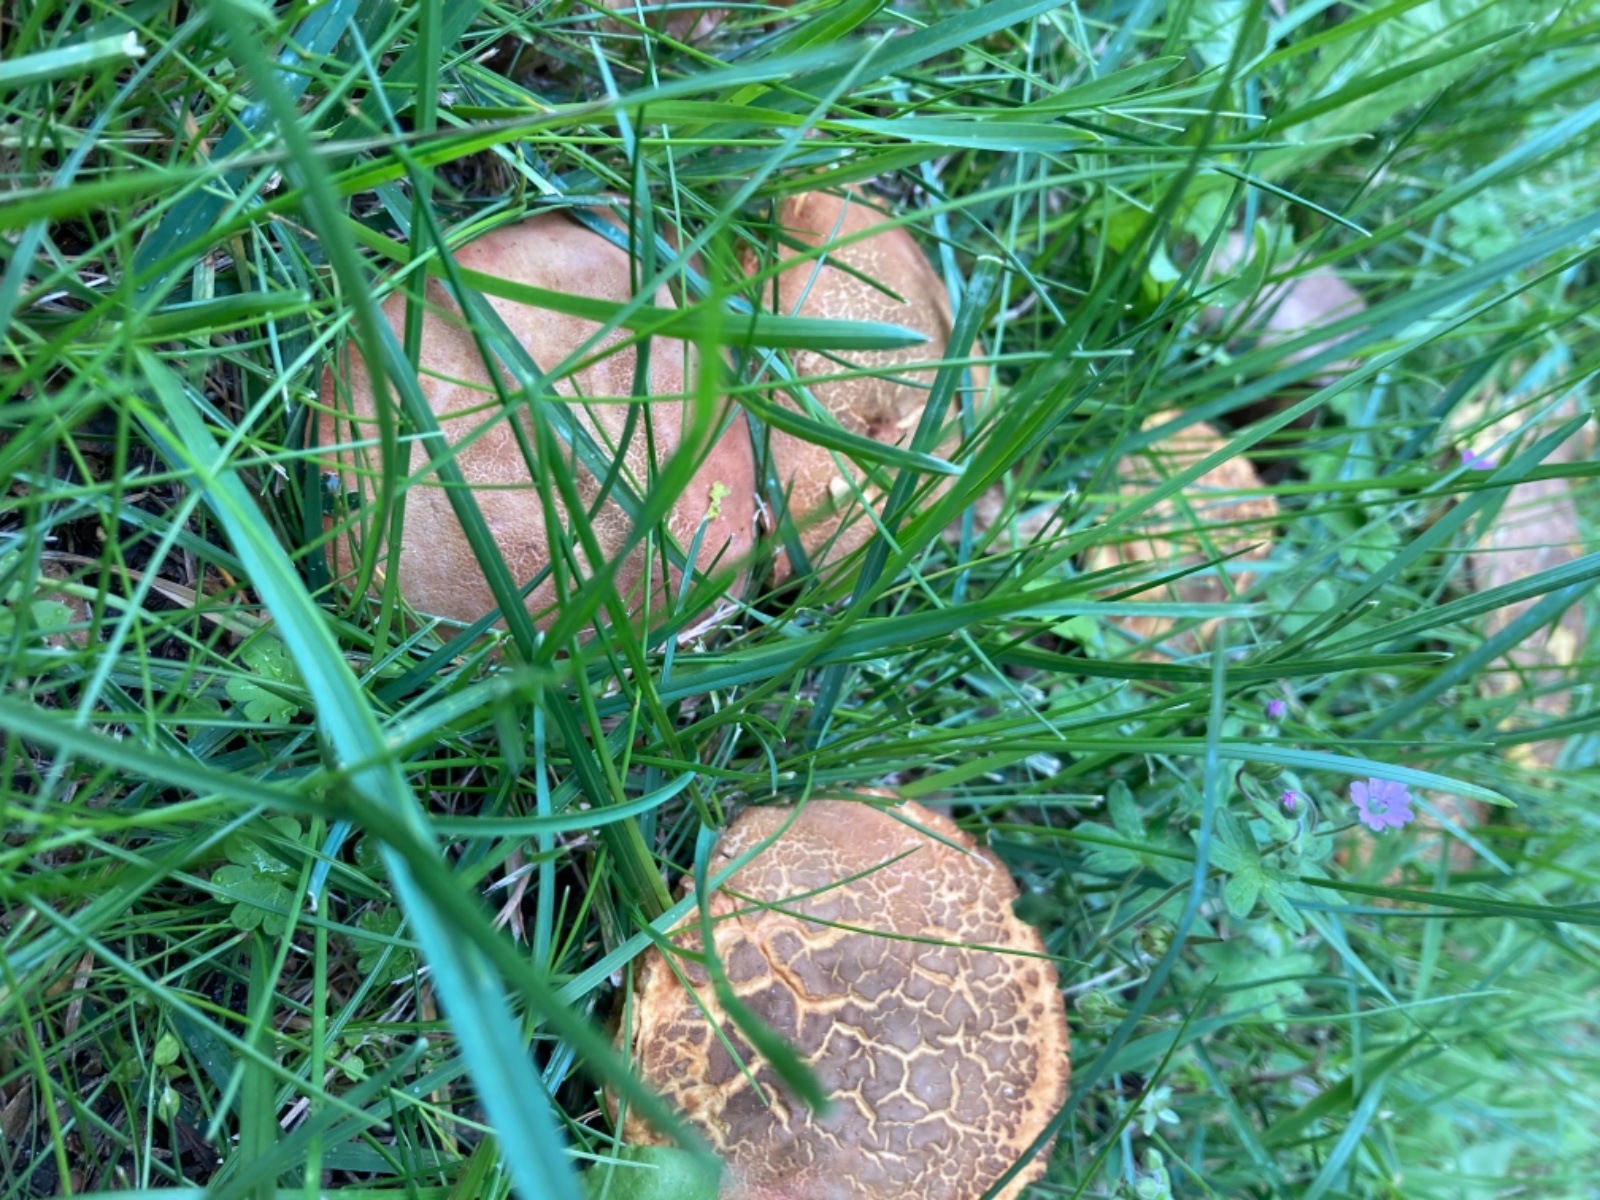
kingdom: Fungi
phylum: Basidiomycota
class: Agaricomycetes
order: Boletales
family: Boletaceae
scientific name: Boletaceae
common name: rørhatfamilien
